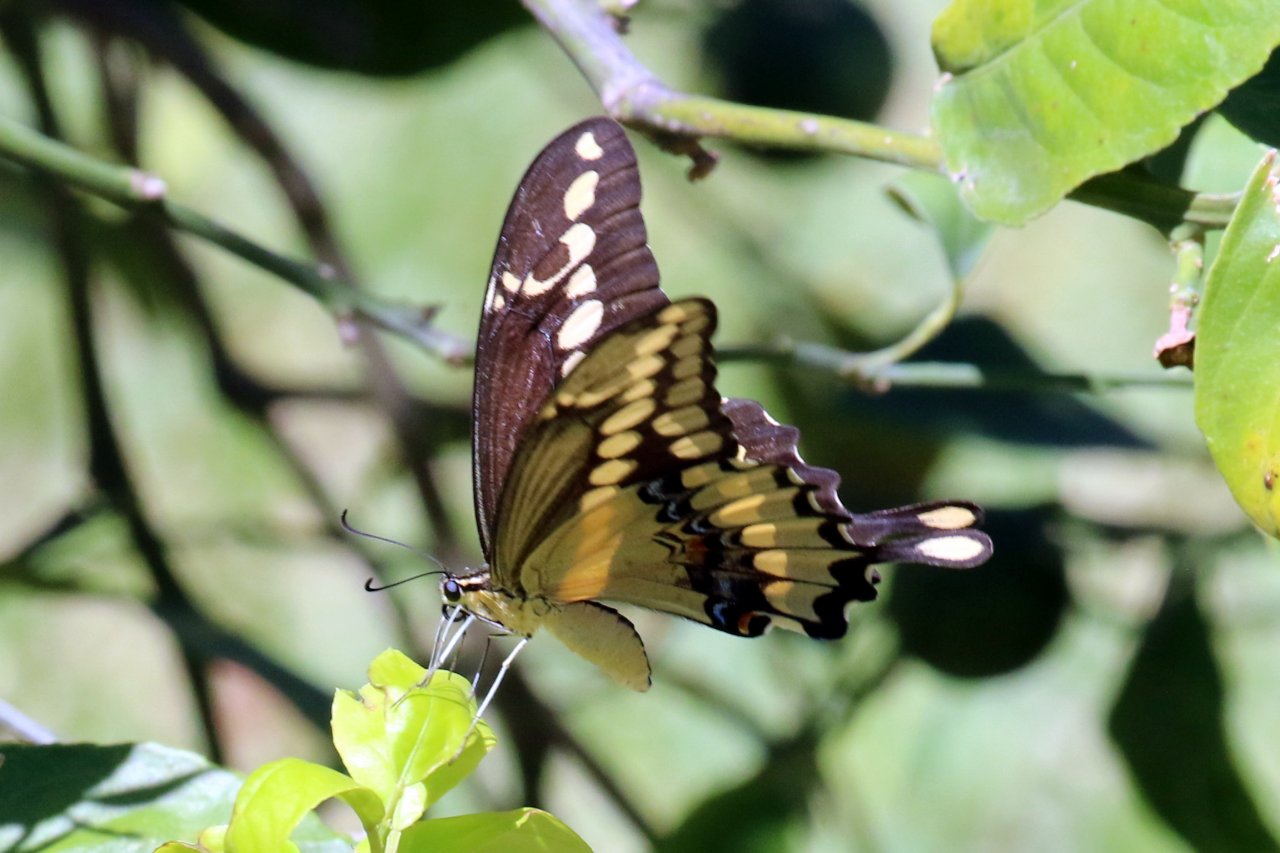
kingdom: Animalia
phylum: Arthropoda
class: Insecta
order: Lepidoptera
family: Papilionidae
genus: Papilio
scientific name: Papilio rumiko
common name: Western Giant Swallowtail
